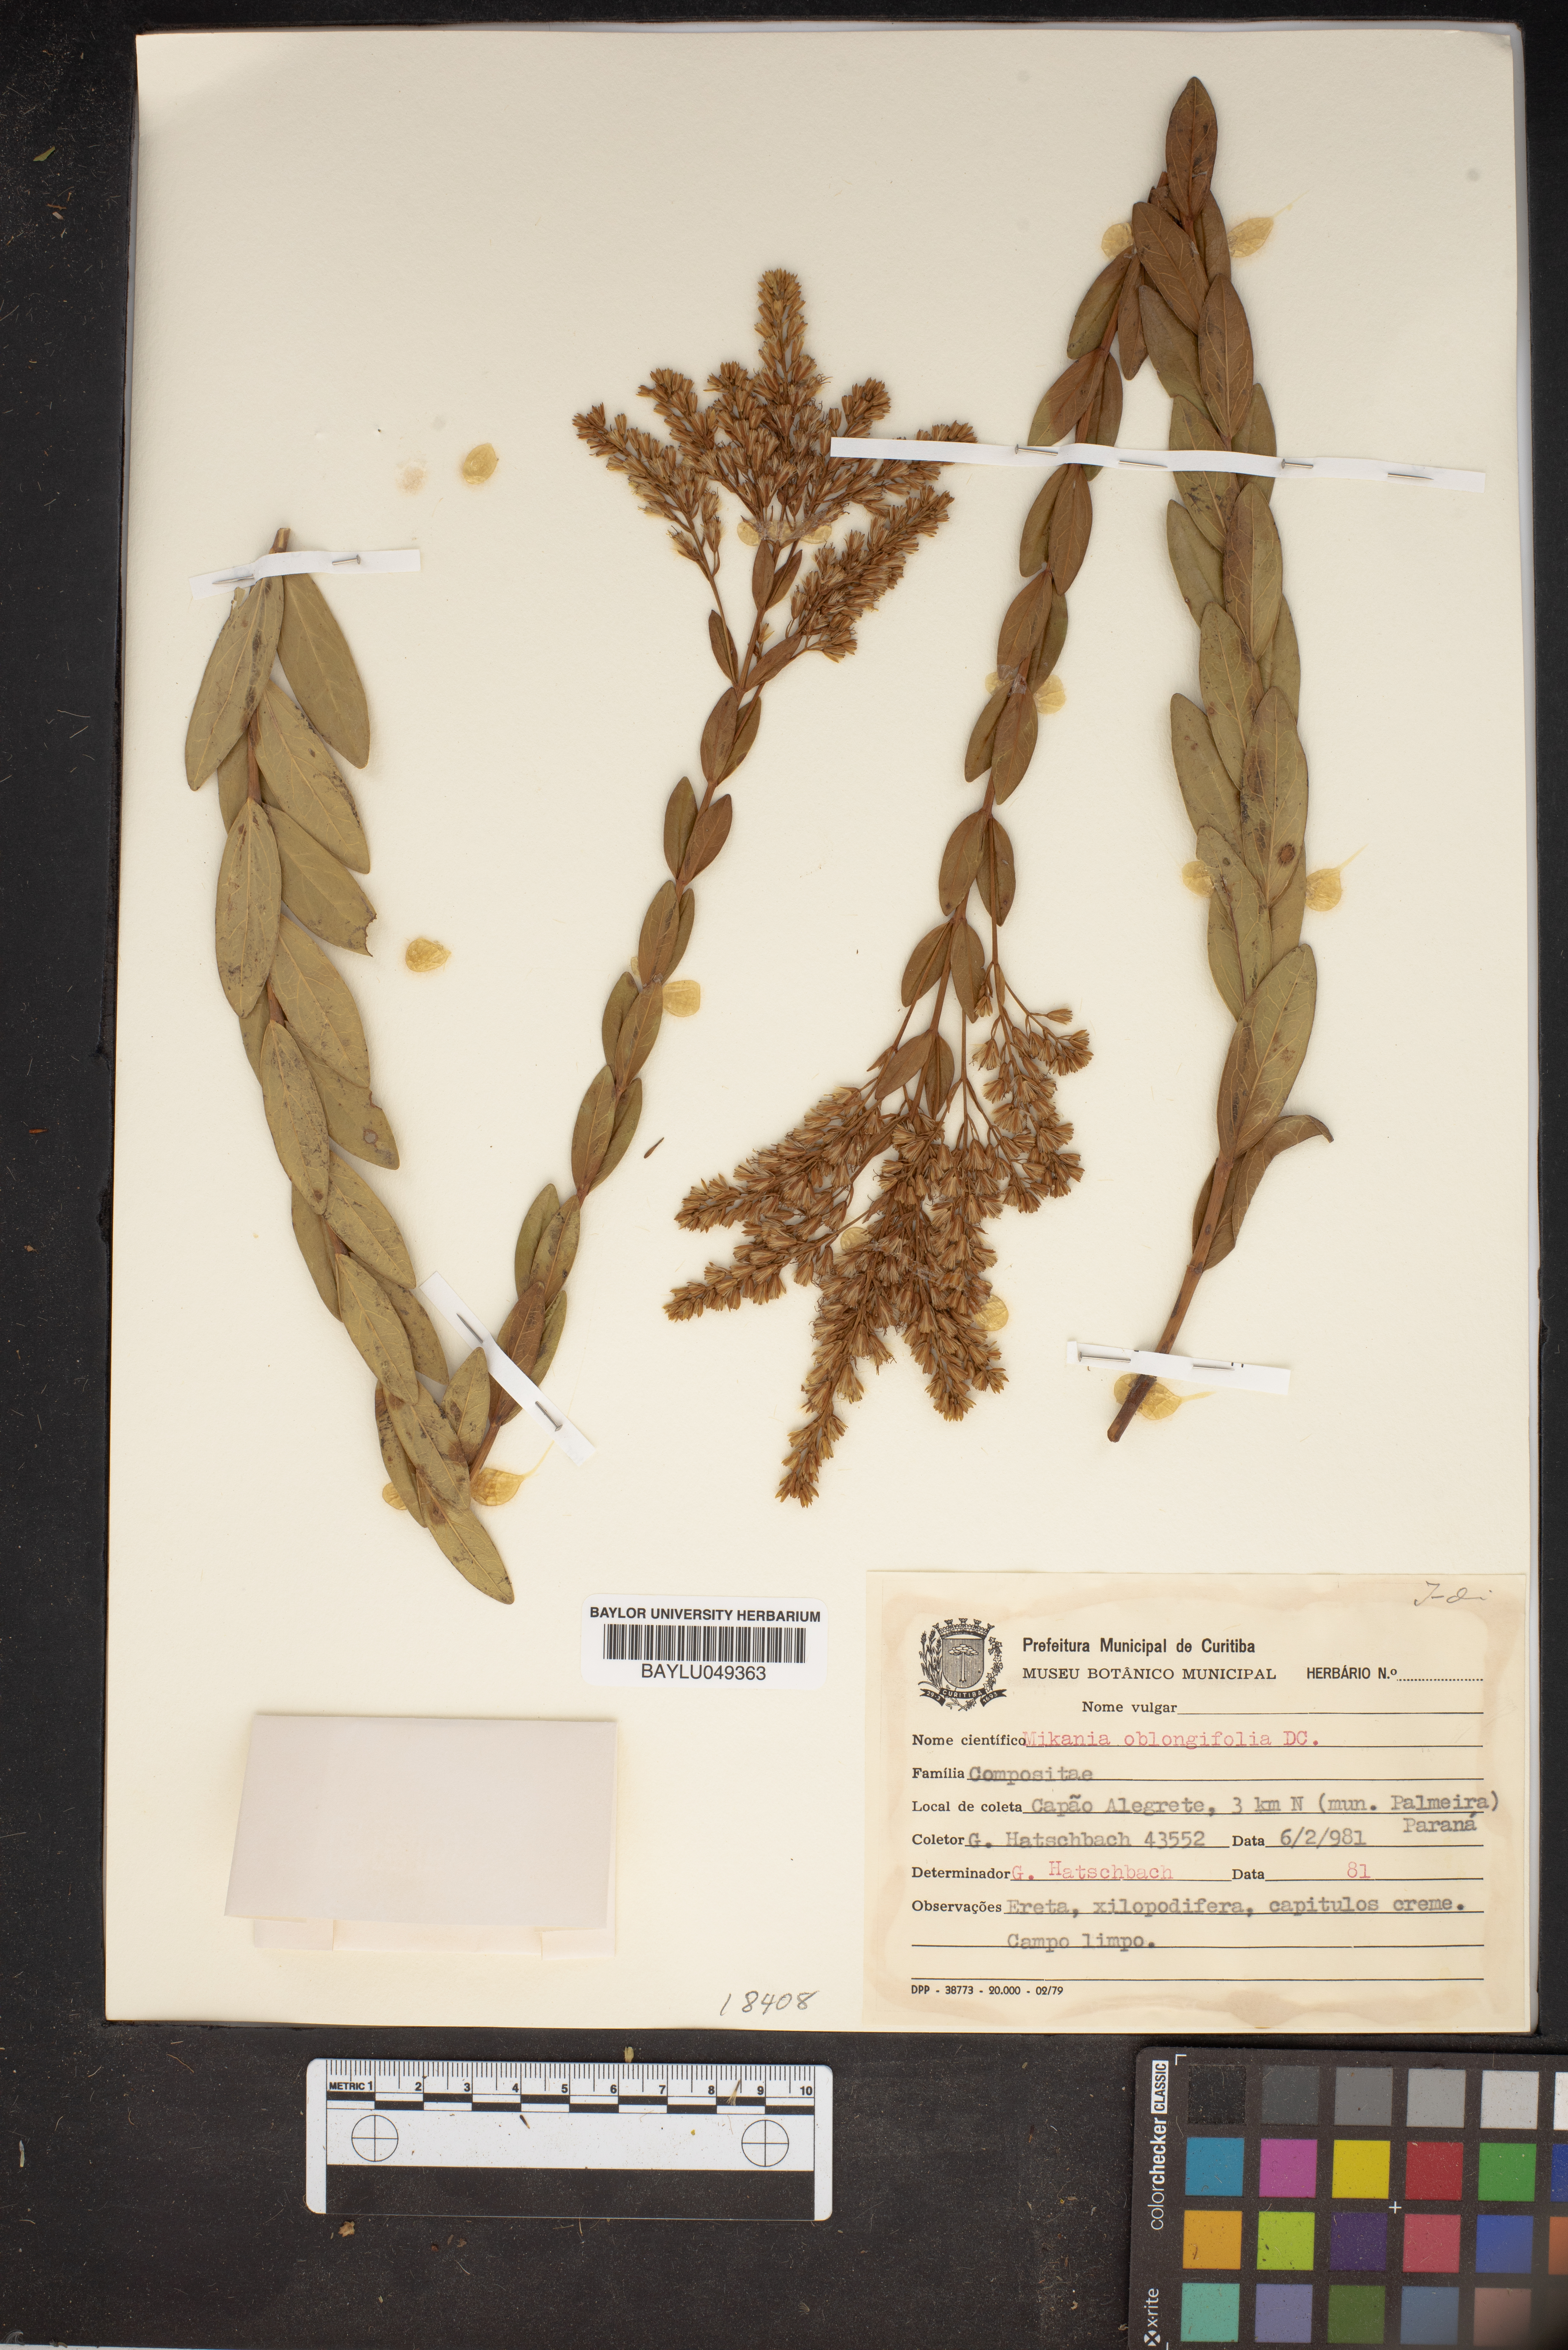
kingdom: Plantae
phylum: Tracheophyta
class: Magnoliopsida
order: Asterales
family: Asteraceae
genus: Mikania
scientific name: Mikania oblongifolia
